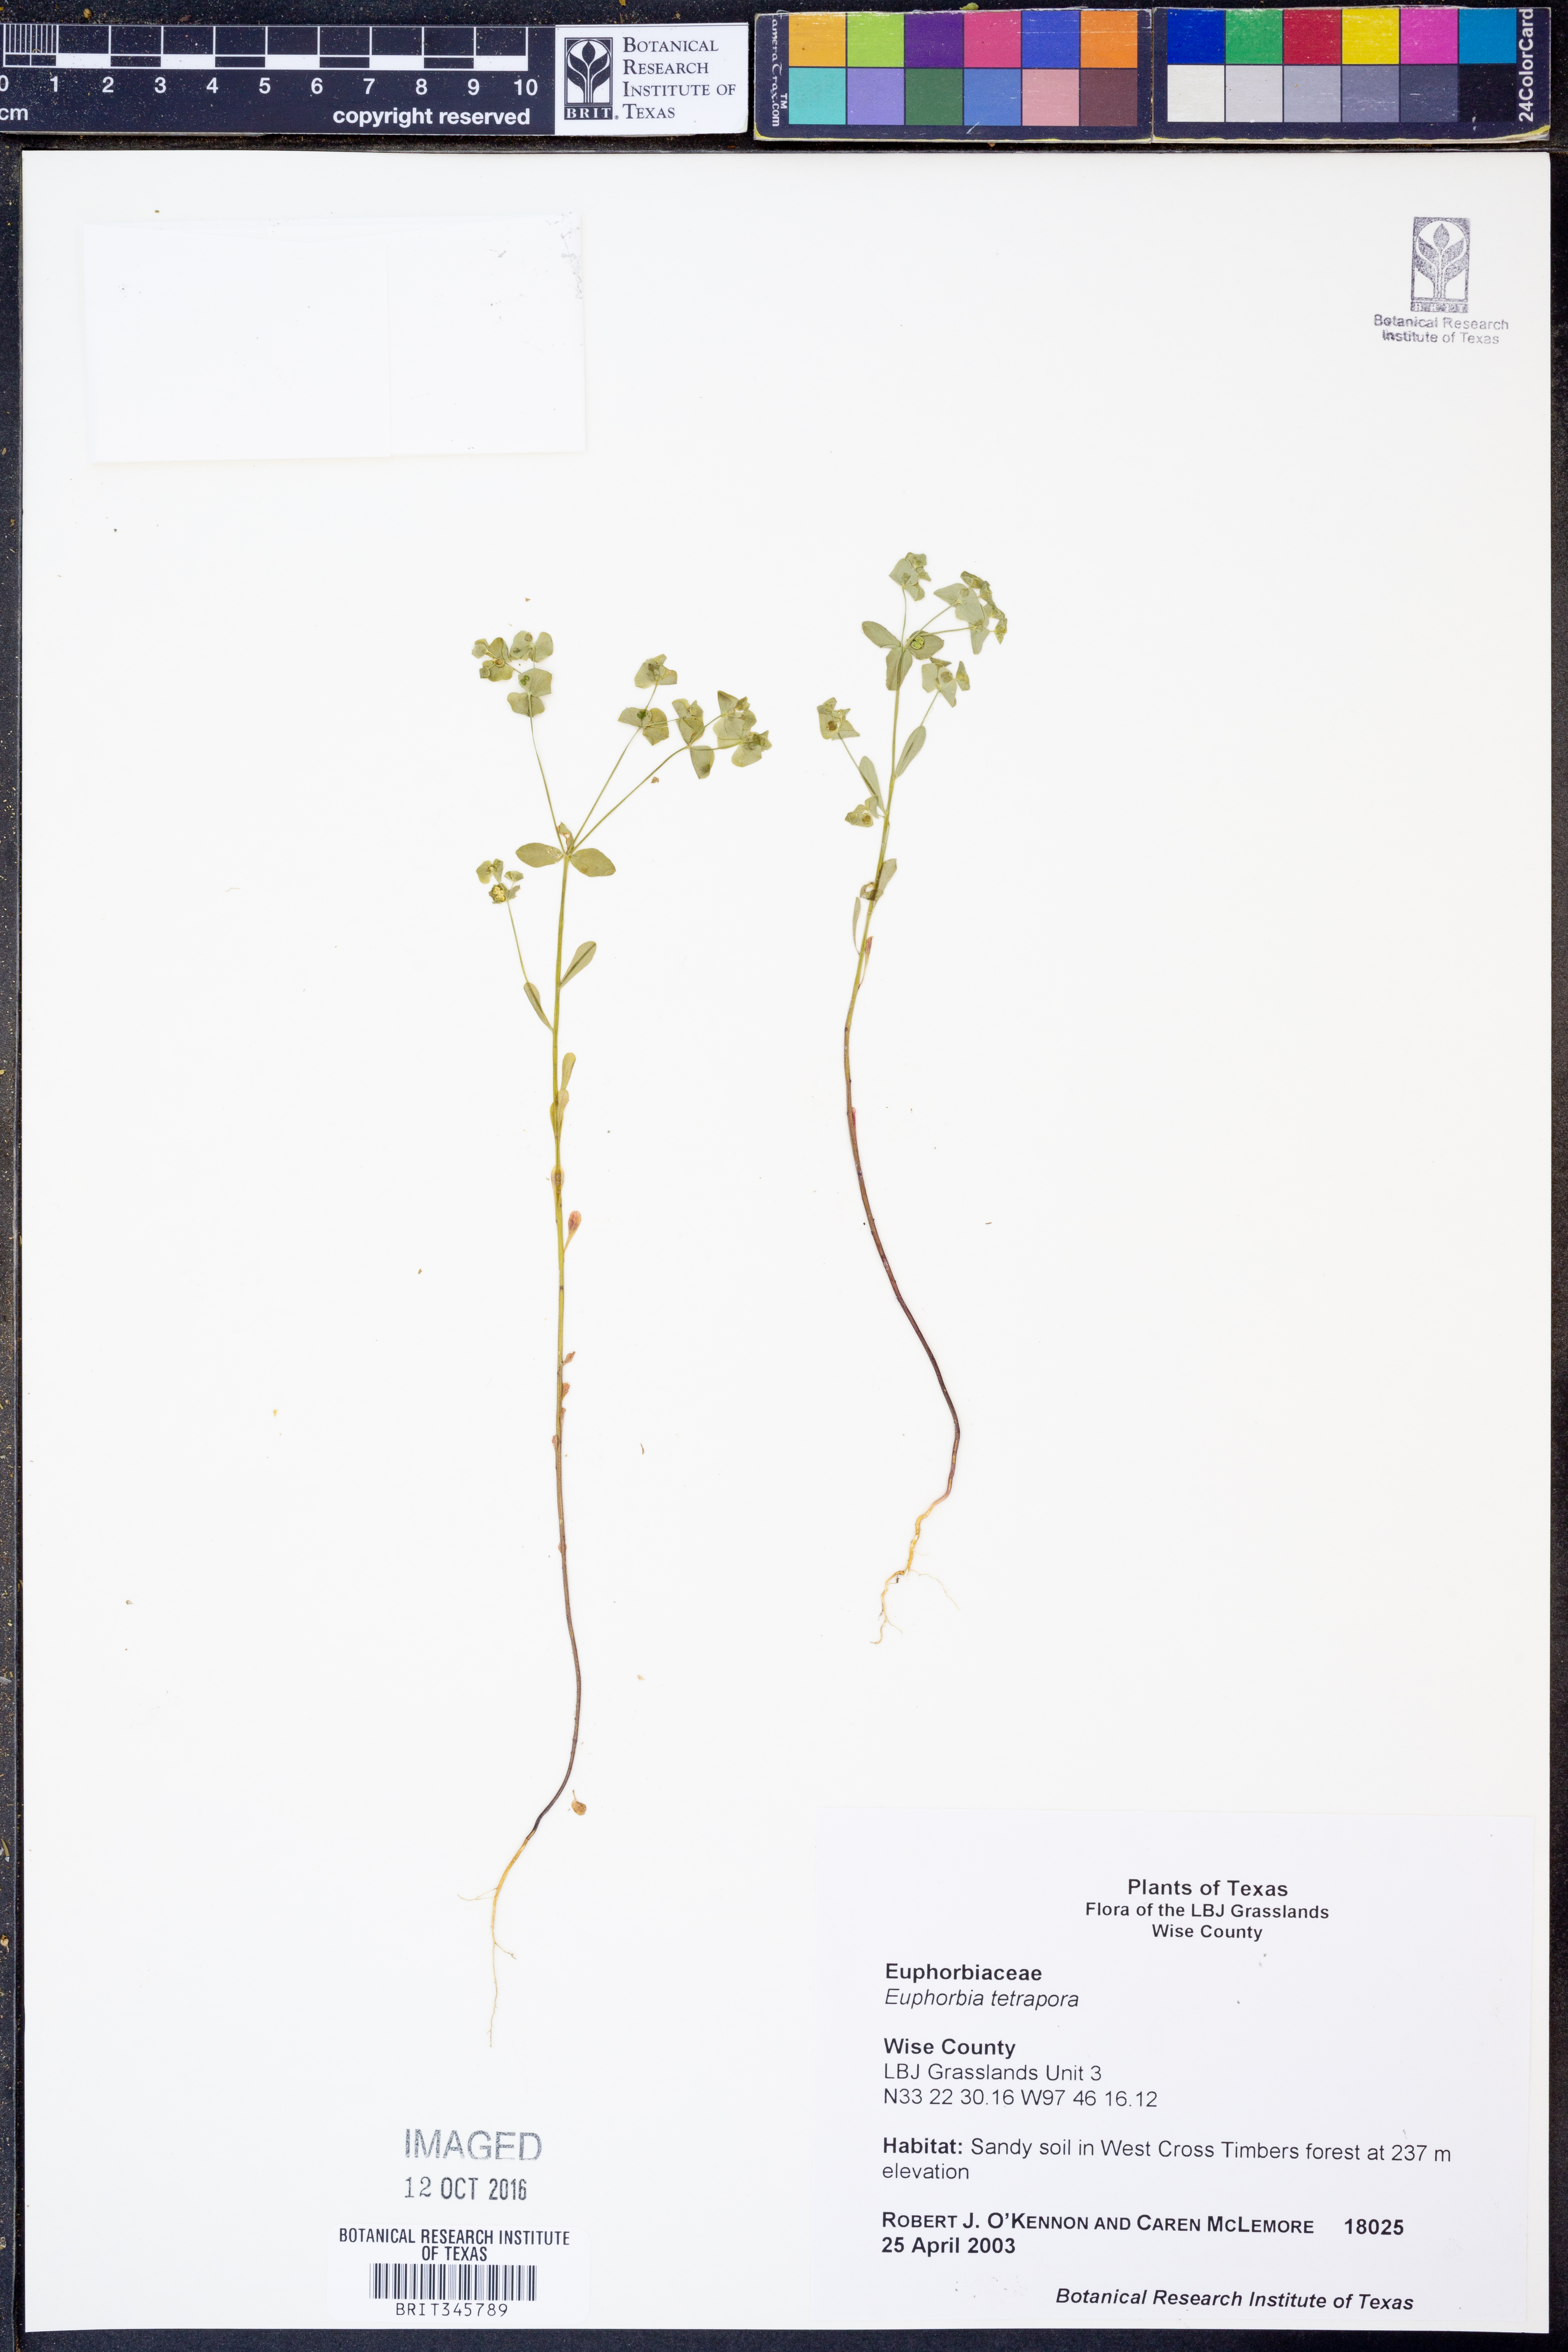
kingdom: Plantae
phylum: Tracheophyta
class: Magnoliopsida
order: Malpighiales
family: Euphorbiaceae
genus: Euphorbia
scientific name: Euphorbia tetrapora
